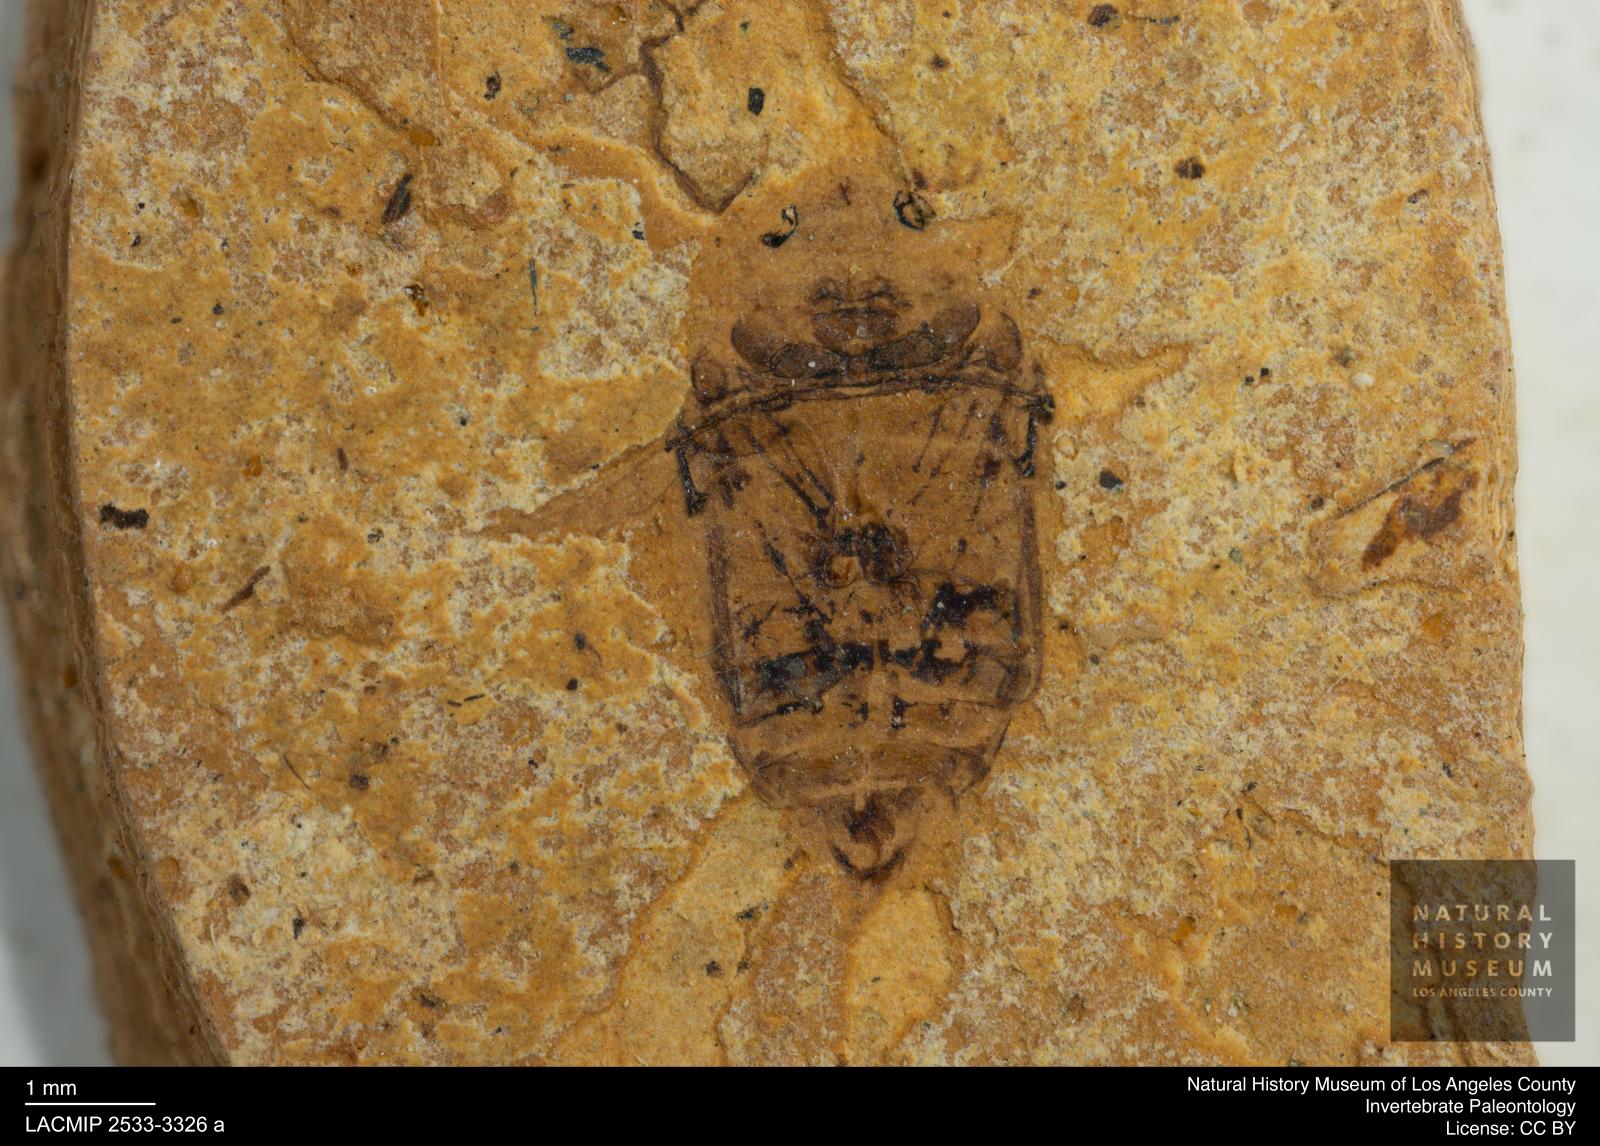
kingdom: Animalia
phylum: Arthropoda
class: Insecta
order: Coleoptera
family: Dytiscidae
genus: Laccophilus
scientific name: Laccophilus Palaeogyrinus strigatus
